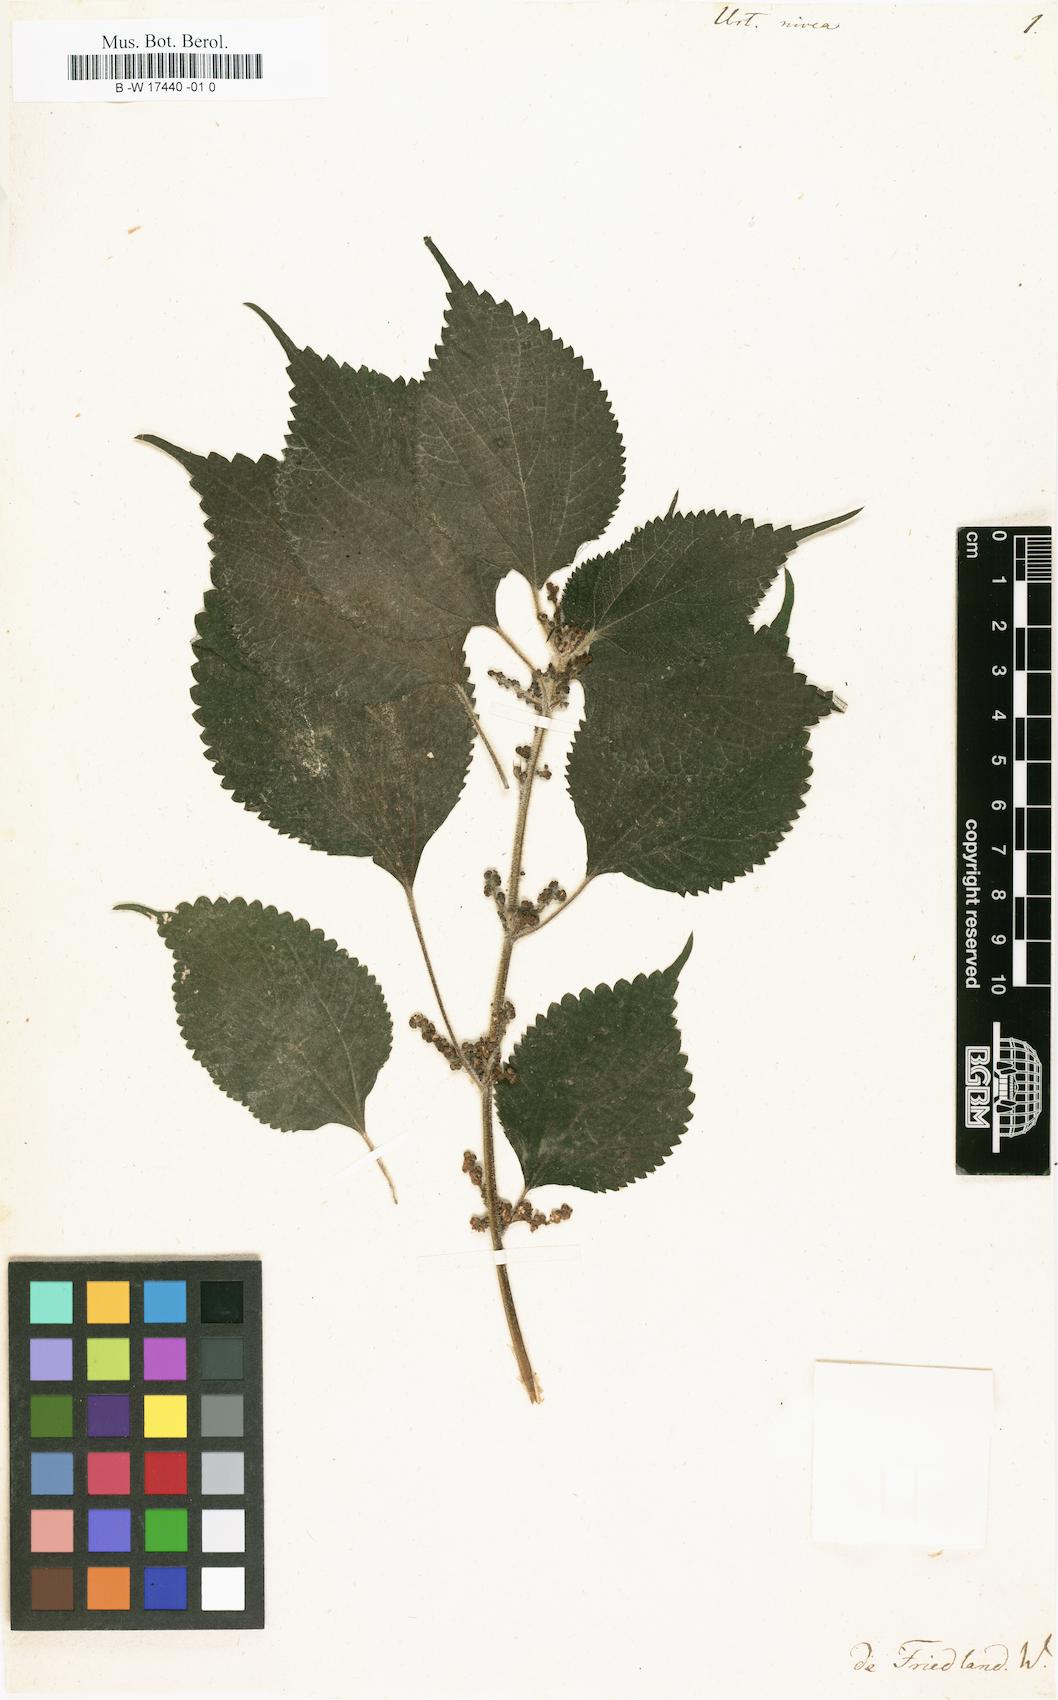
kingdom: Plantae
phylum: Tracheophyta
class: Magnoliopsida
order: Rosales
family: Urticaceae
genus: Boehmeria
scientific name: Boehmeria nivea
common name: Ramie chinese grass
